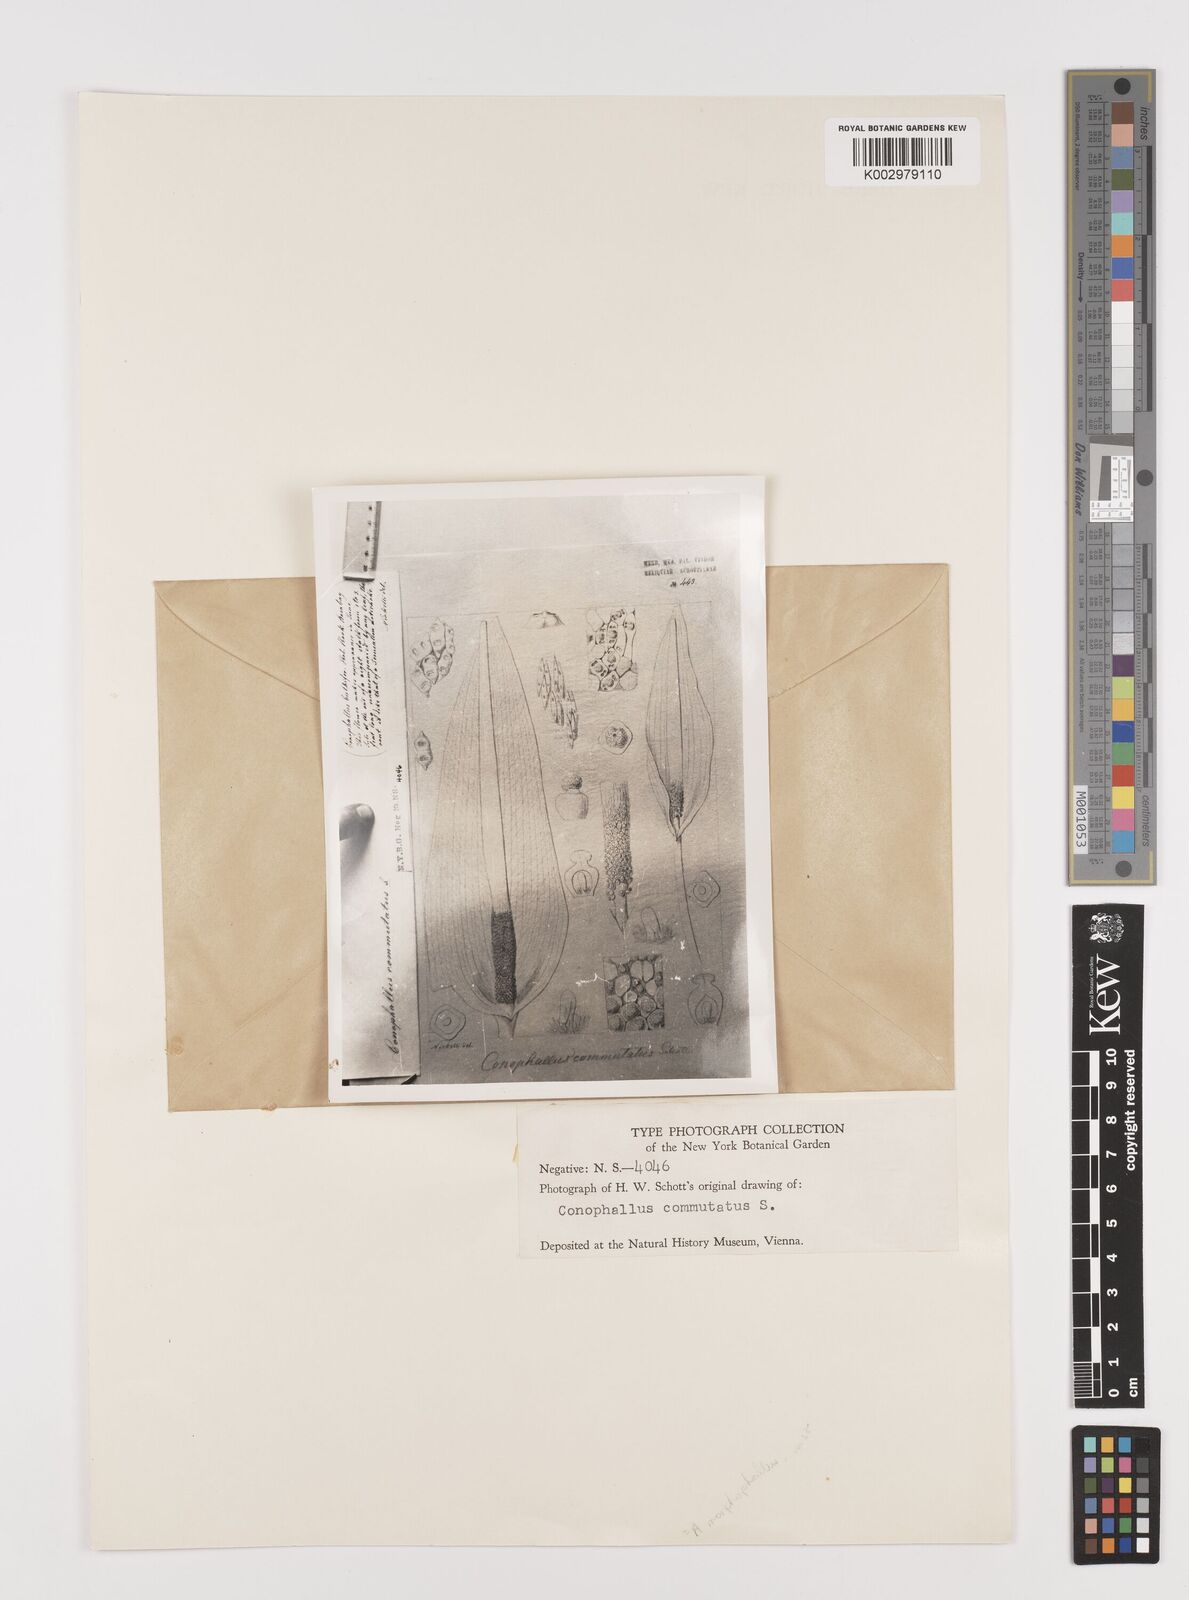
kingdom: Plantae
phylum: Tracheophyta
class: Liliopsida
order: Alismatales
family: Araceae
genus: Amorphophallus
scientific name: Amorphophallus commutatus
